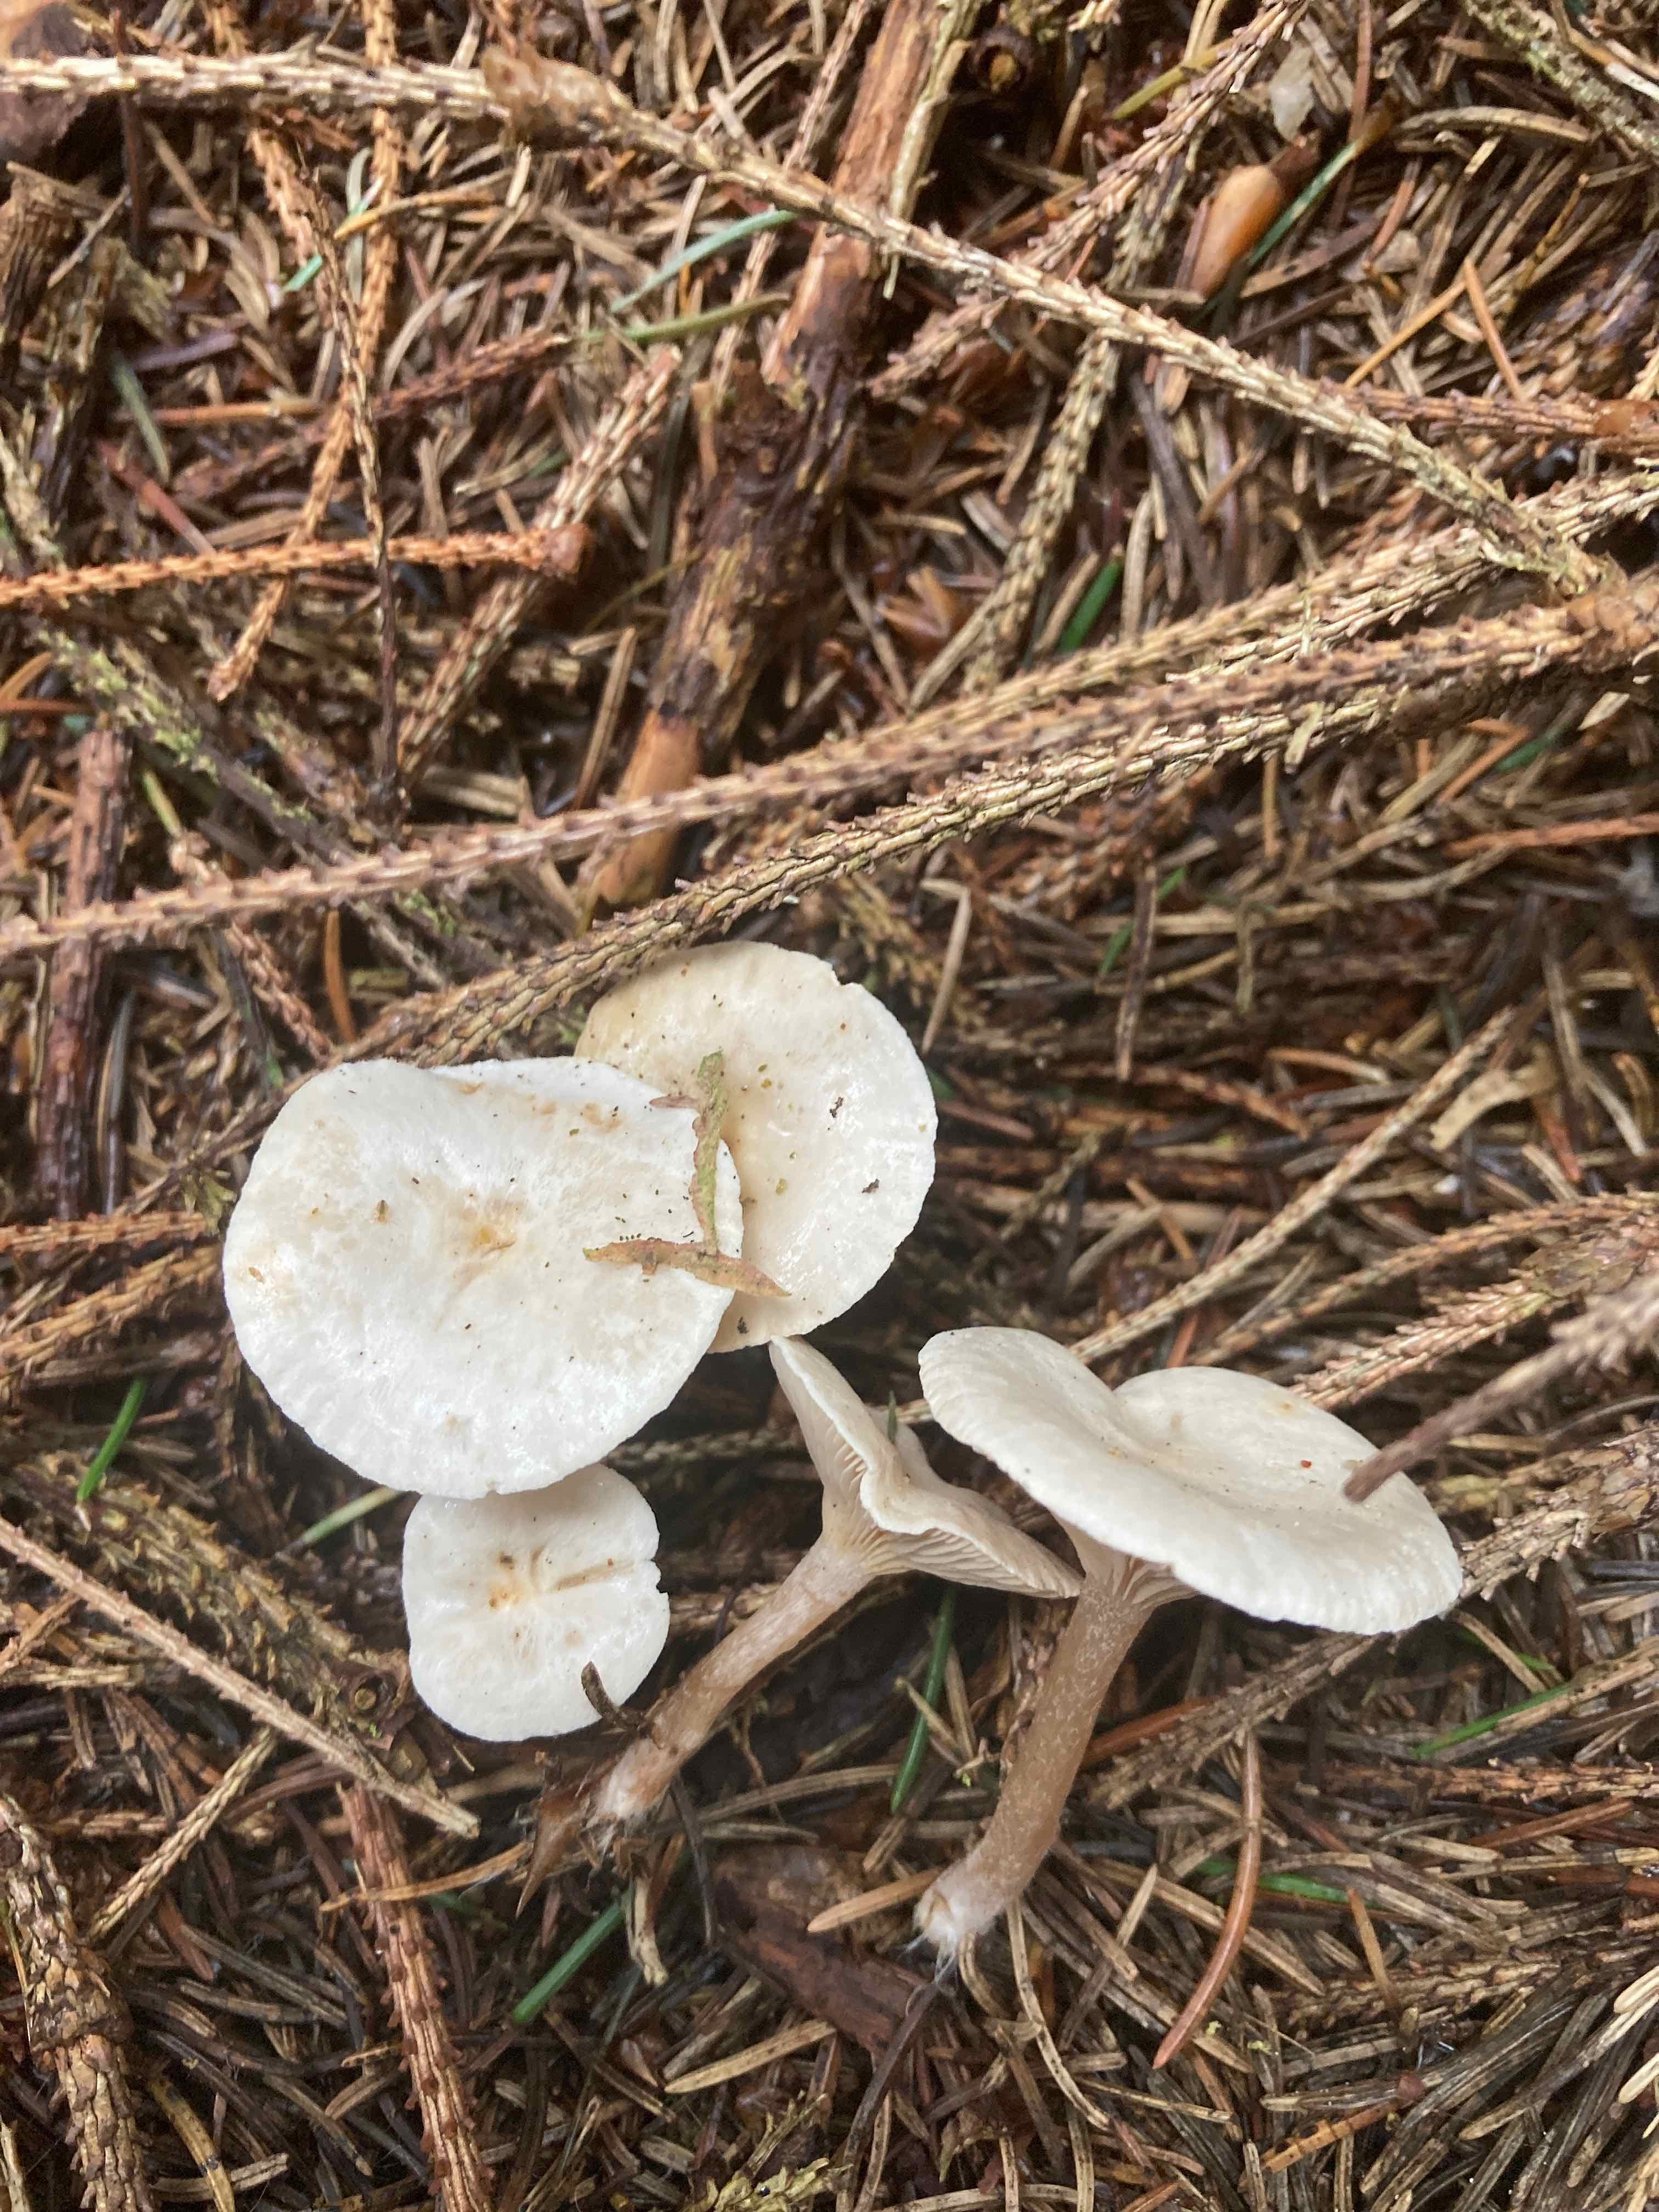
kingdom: Fungi
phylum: Basidiomycota
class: Agaricomycetes
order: Agaricales
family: Tricholomataceae
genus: Ripartites
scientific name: Ripartites tricholoma
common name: almindelig skæghat
